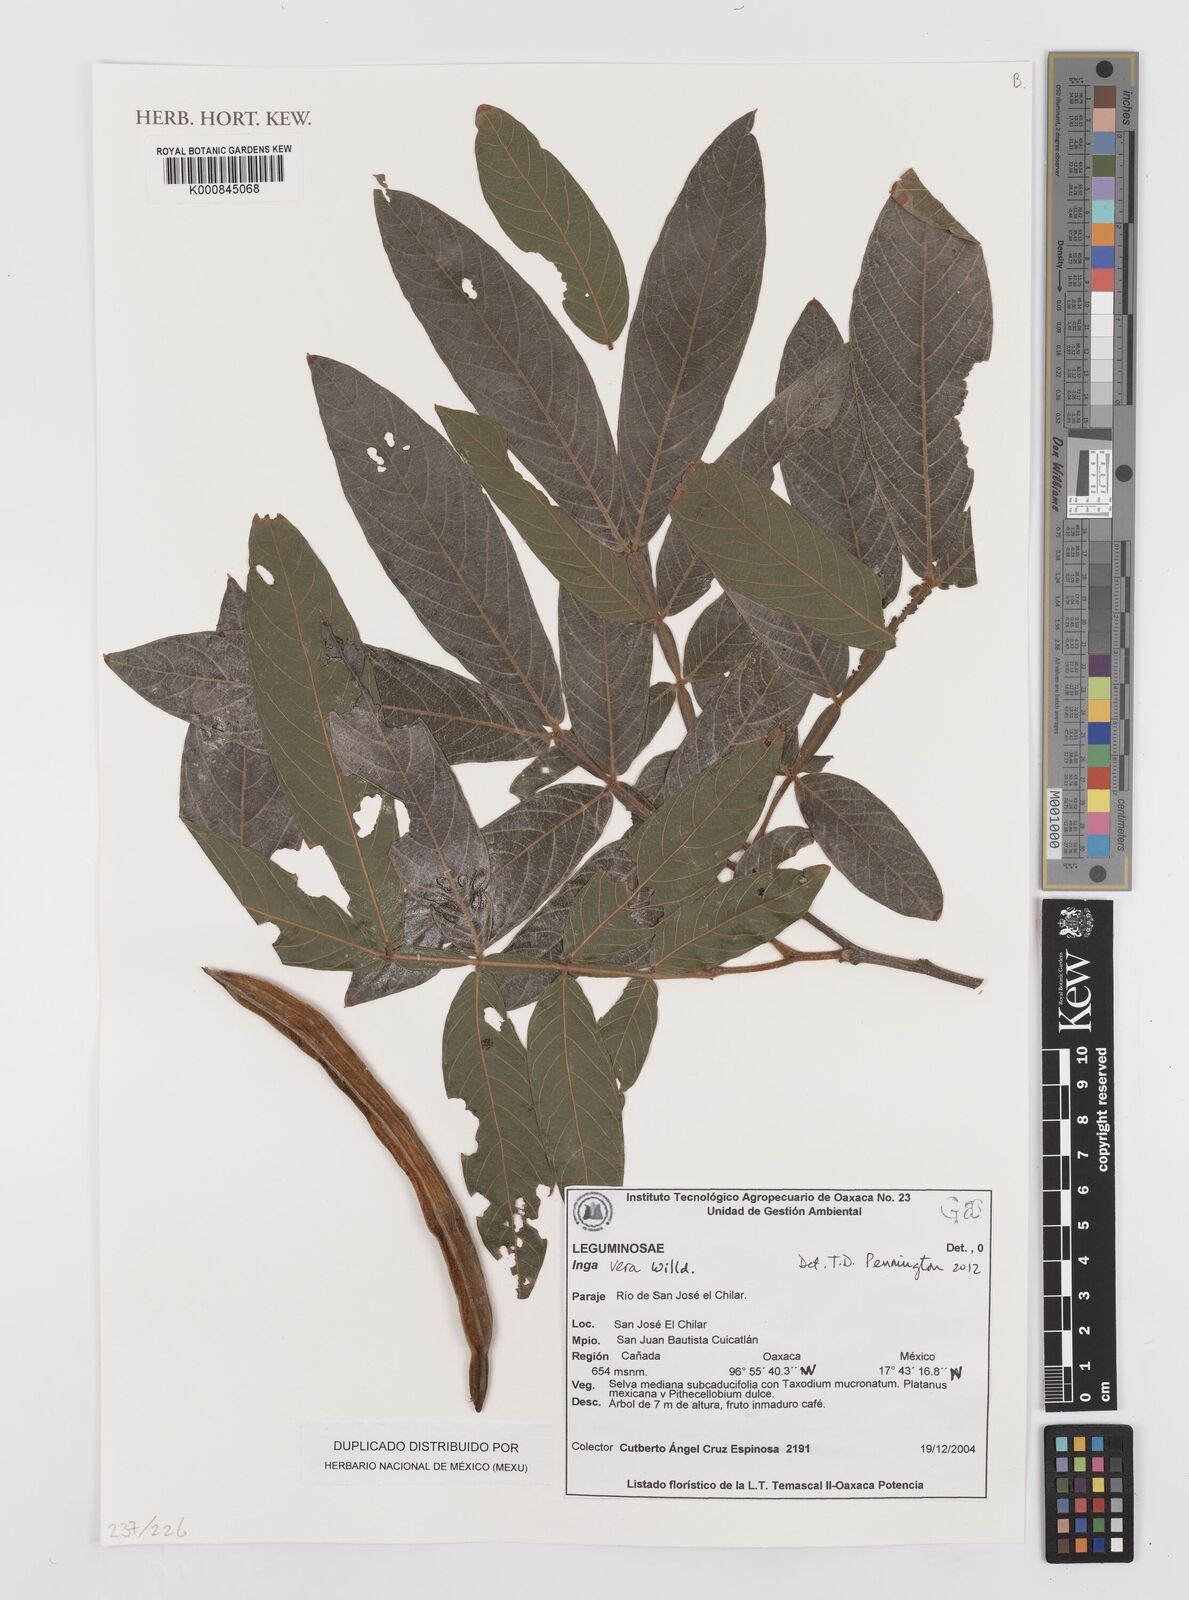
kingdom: Plantae
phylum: Tracheophyta
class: Magnoliopsida
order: Fabales
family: Fabaceae
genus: Inga
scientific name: Inga vera
